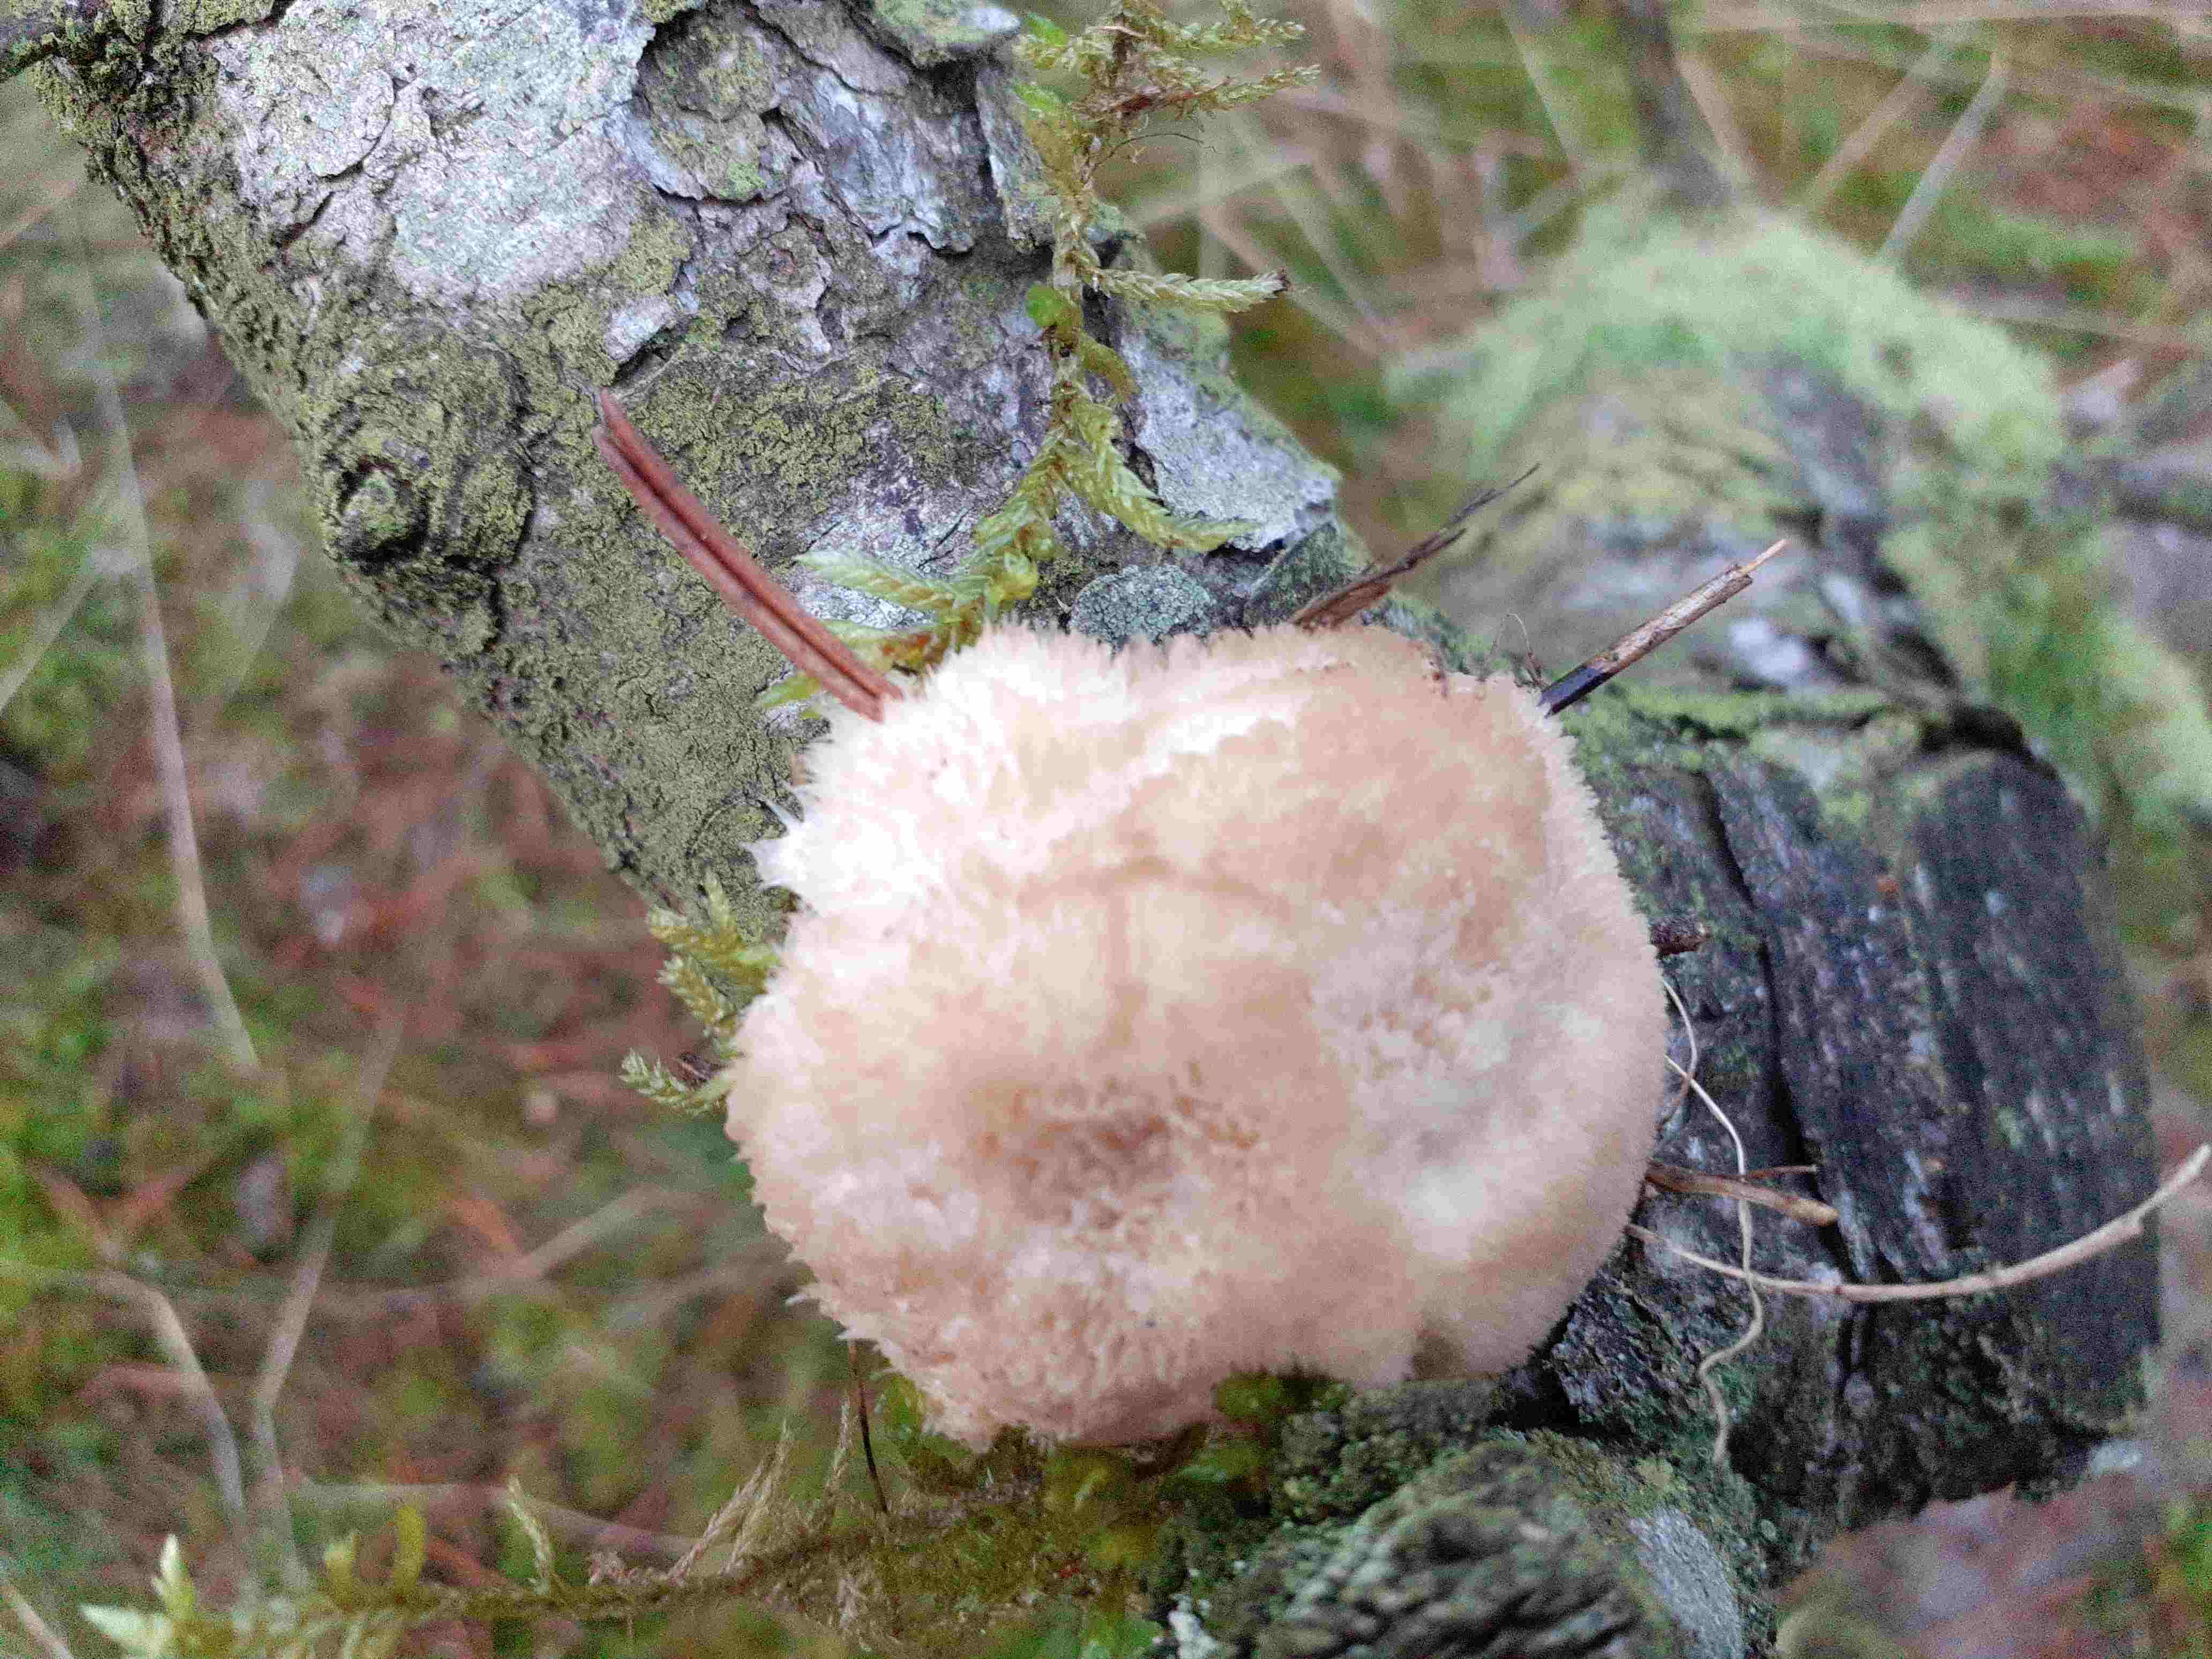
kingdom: Fungi
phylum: Basidiomycota
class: Agaricomycetes
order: Polyporales
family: Dacryobolaceae
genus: Postia
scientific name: Postia ptychogaster
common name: støvende kødporesvamp
